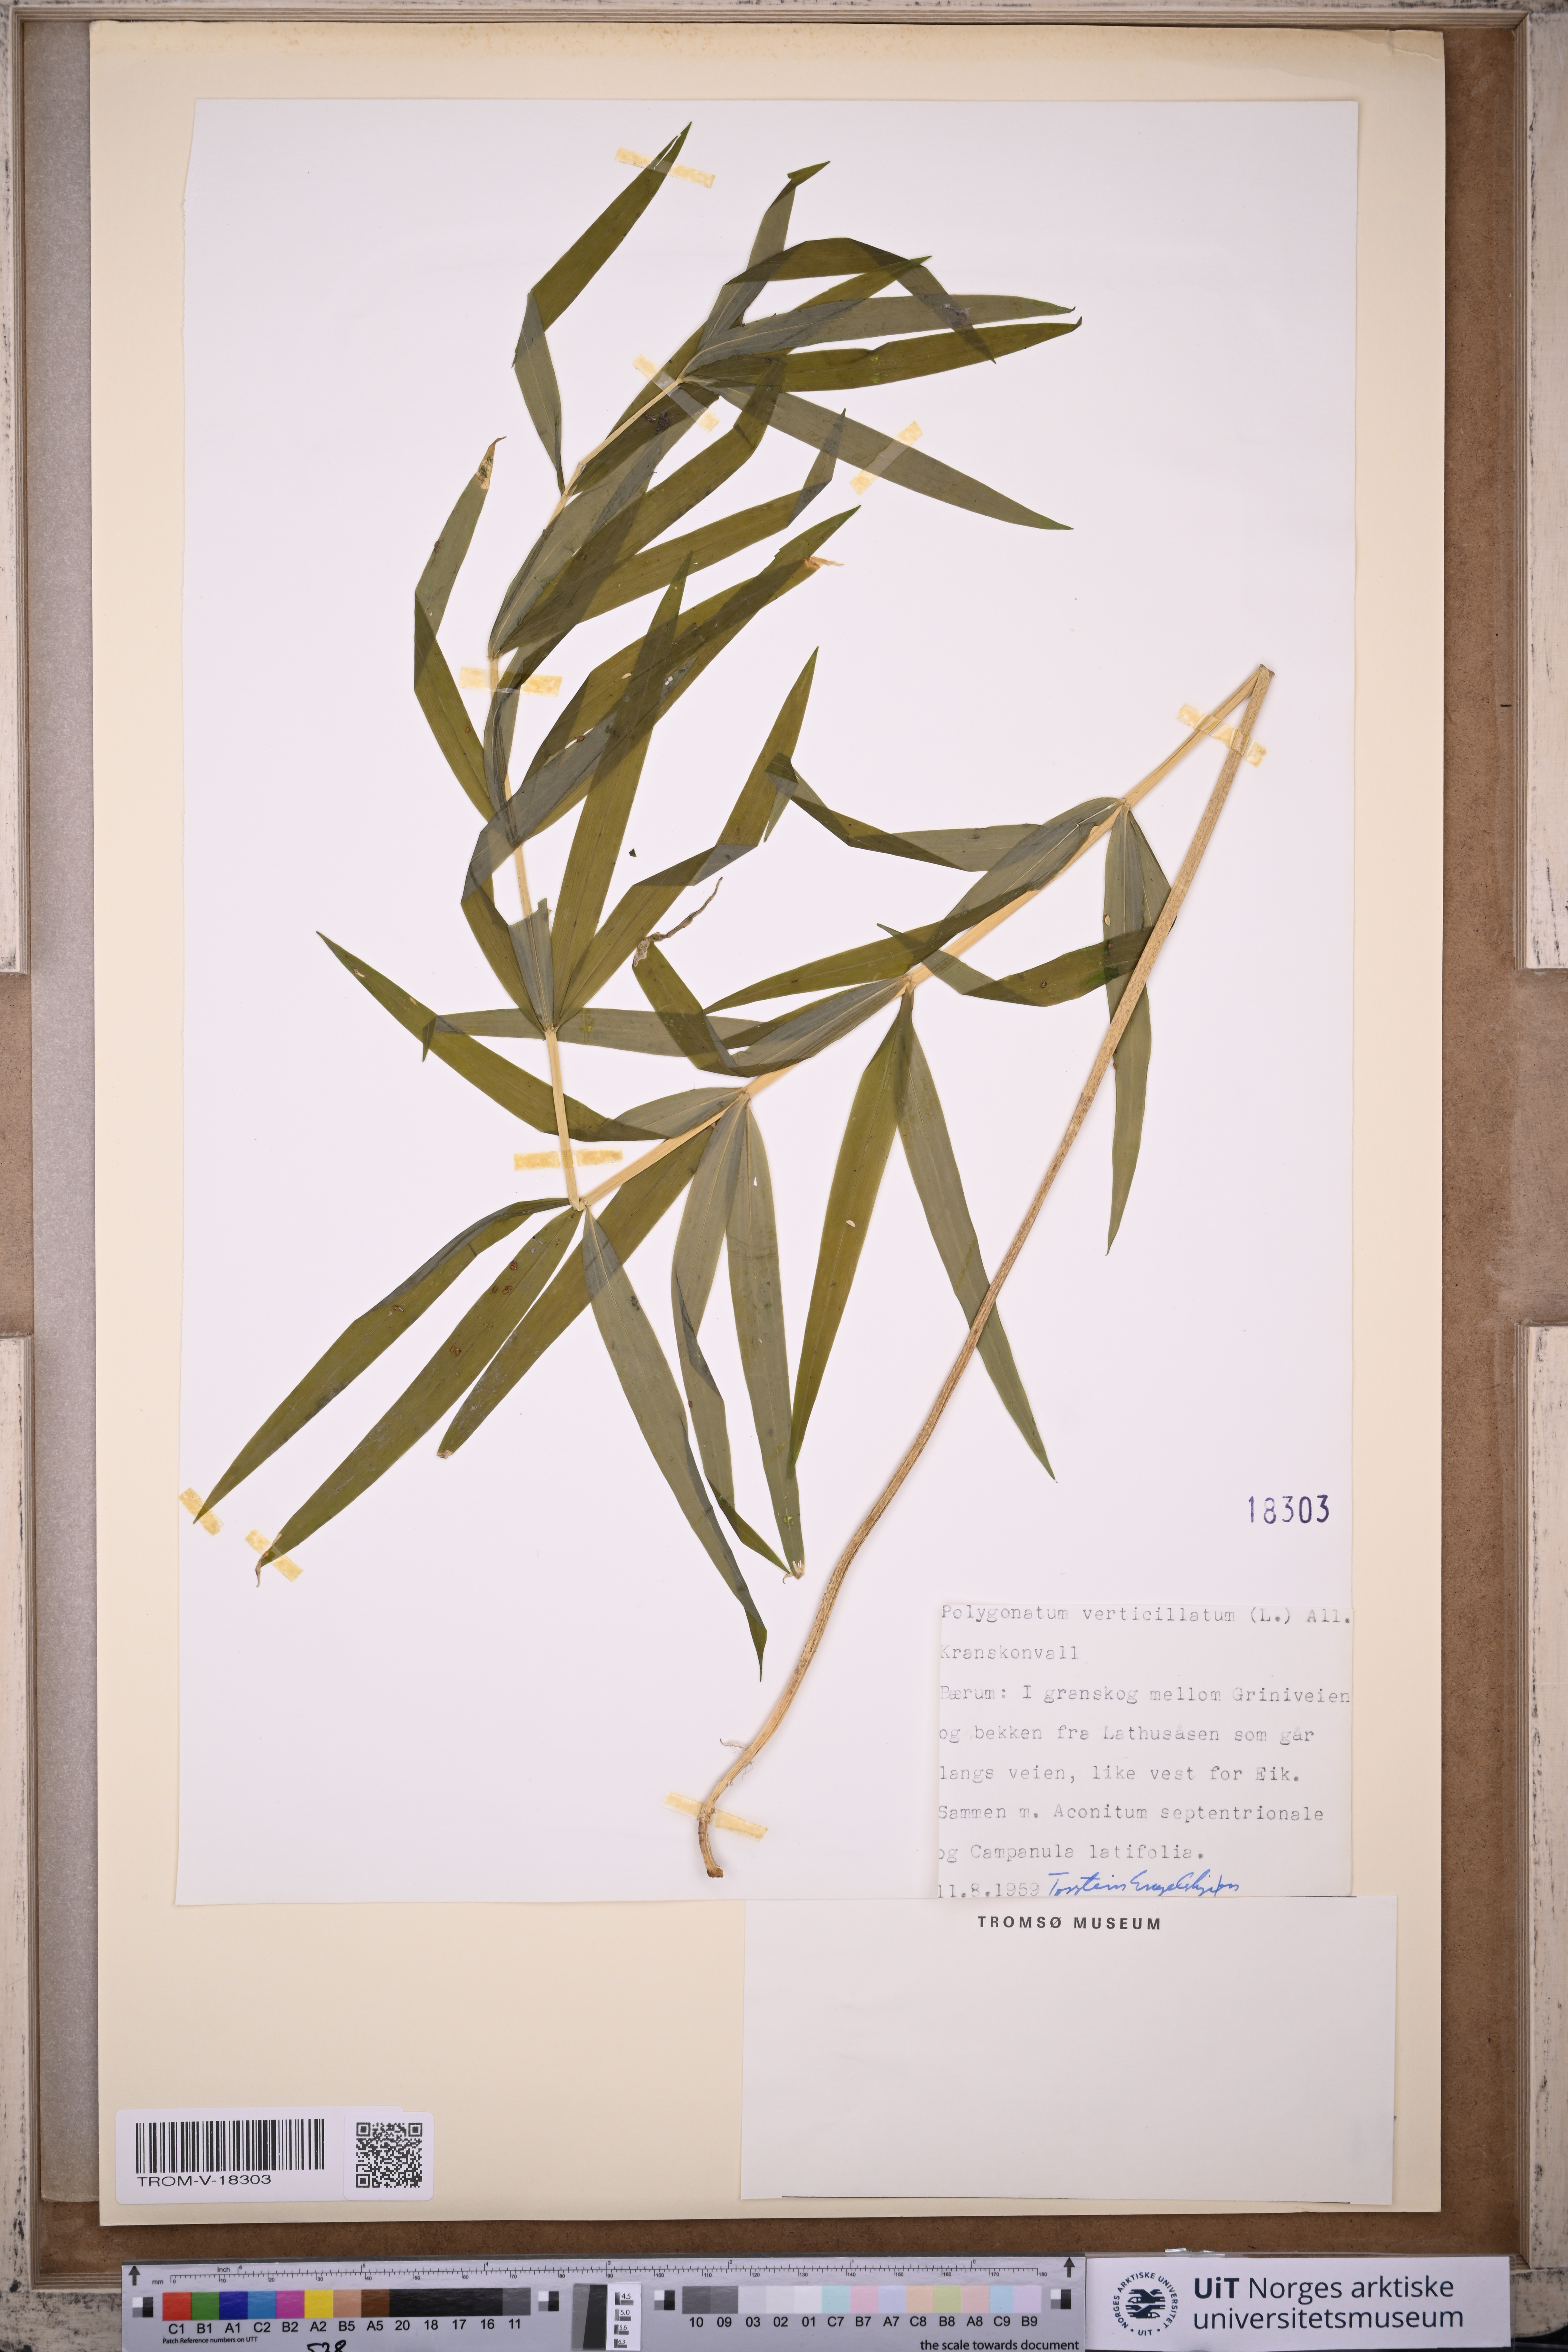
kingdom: Plantae
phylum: Tracheophyta
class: Liliopsida
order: Asparagales
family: Asparagaceae
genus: Polygonatum
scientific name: Polygonatum verticillatum
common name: Whorled solomon's-seal
